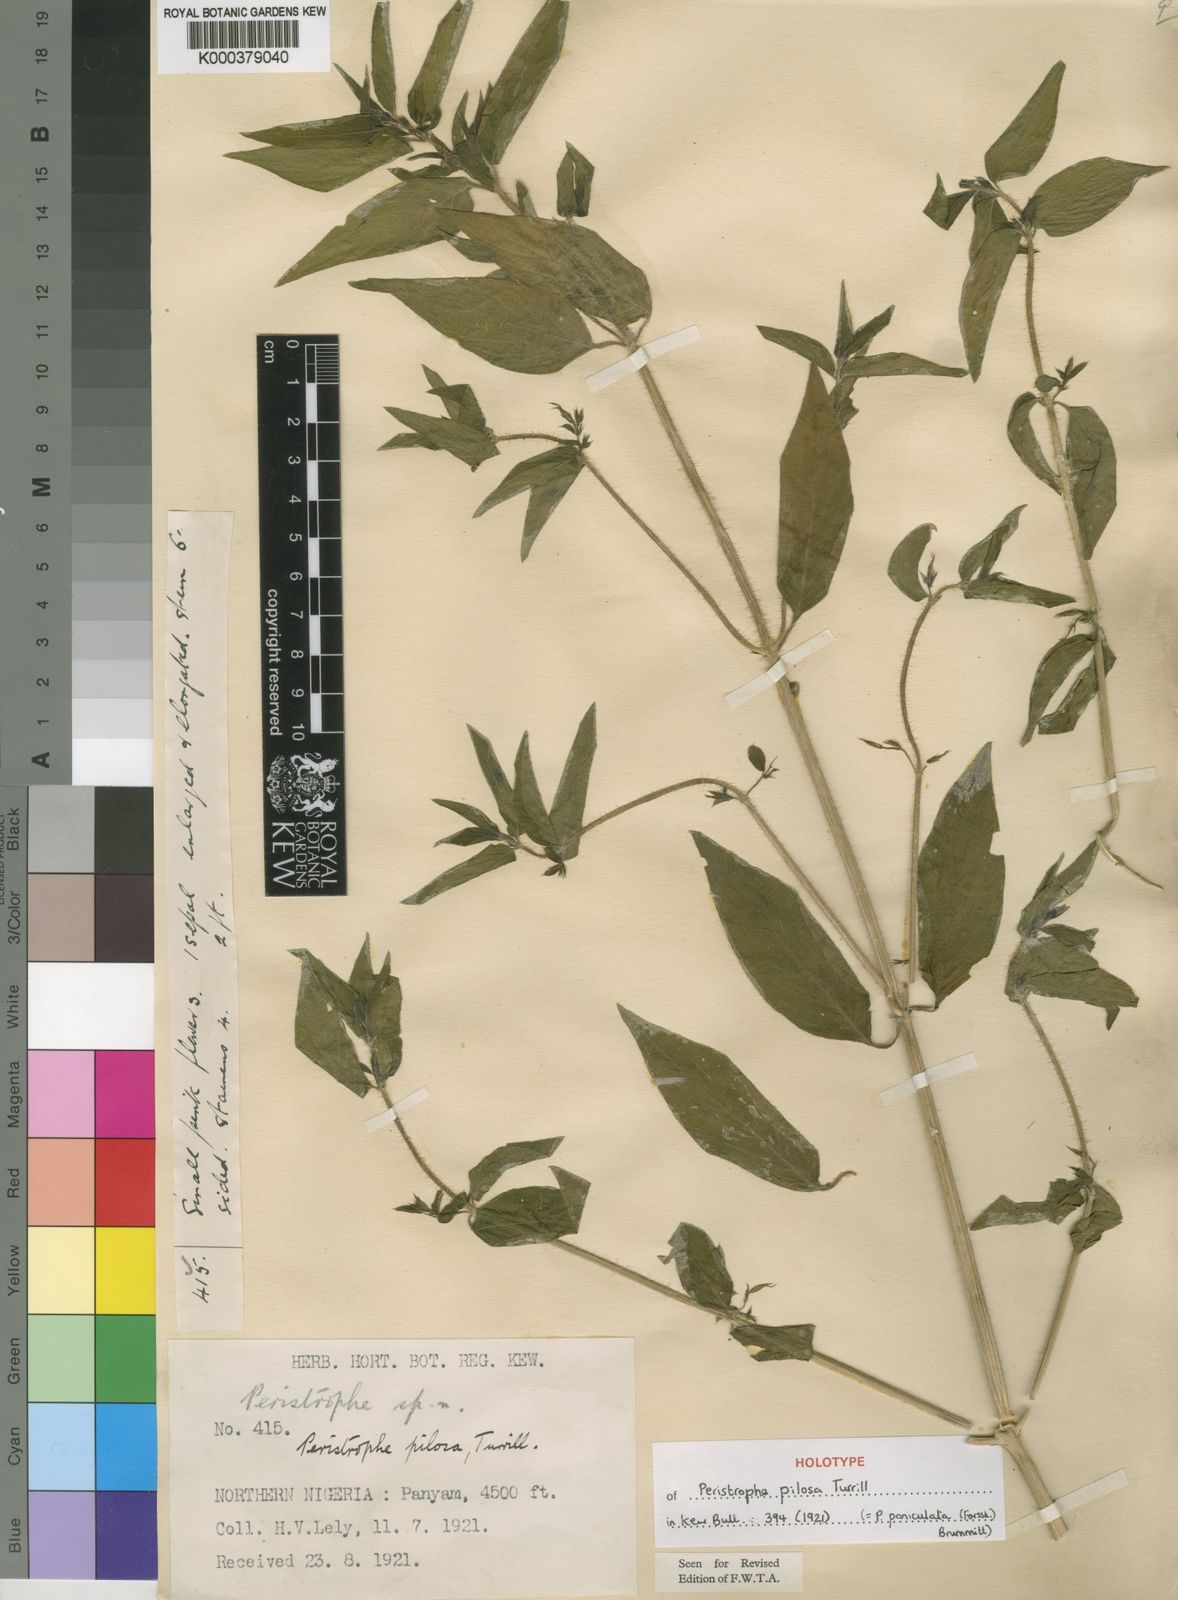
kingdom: Plantae
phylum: Tracheophyta
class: Magnoliopsida
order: Lamiales
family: Acanthaceae
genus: Dicliptera
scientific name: Dicliptera paniculata
